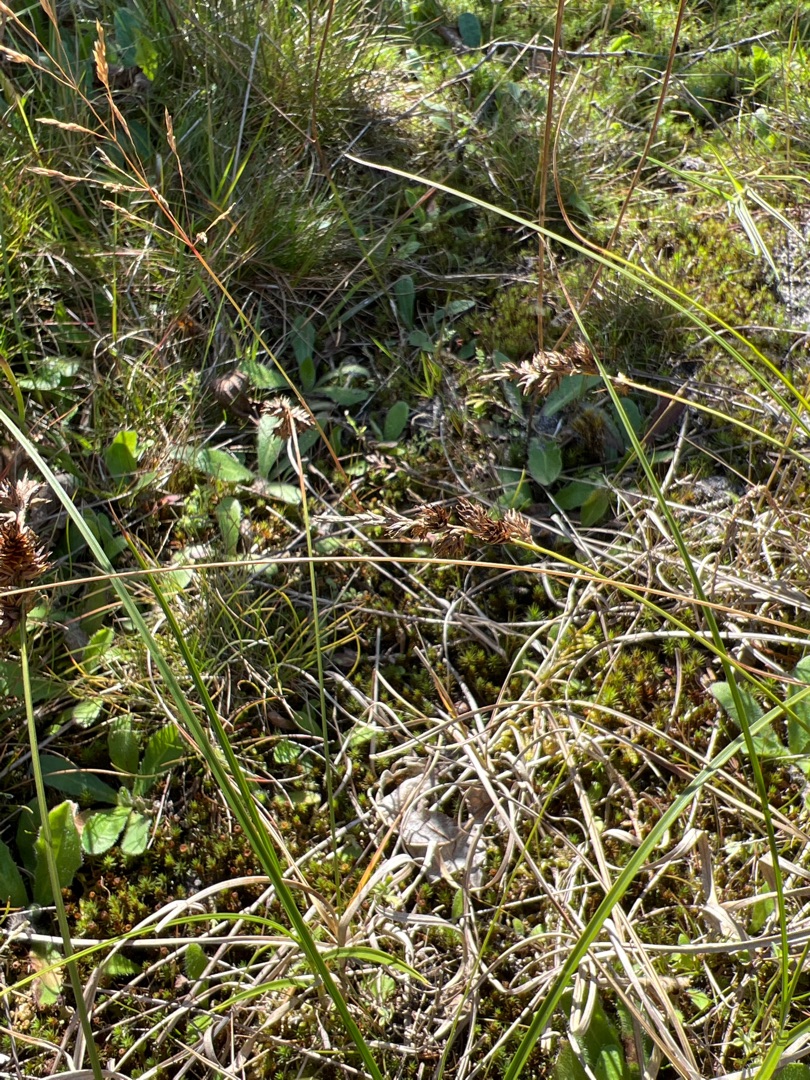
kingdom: Plantae
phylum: Tracheophyta
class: Liliopsida
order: Poales
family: Cyperaceae
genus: Carex
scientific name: Carex arenaria
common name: Sand-star
